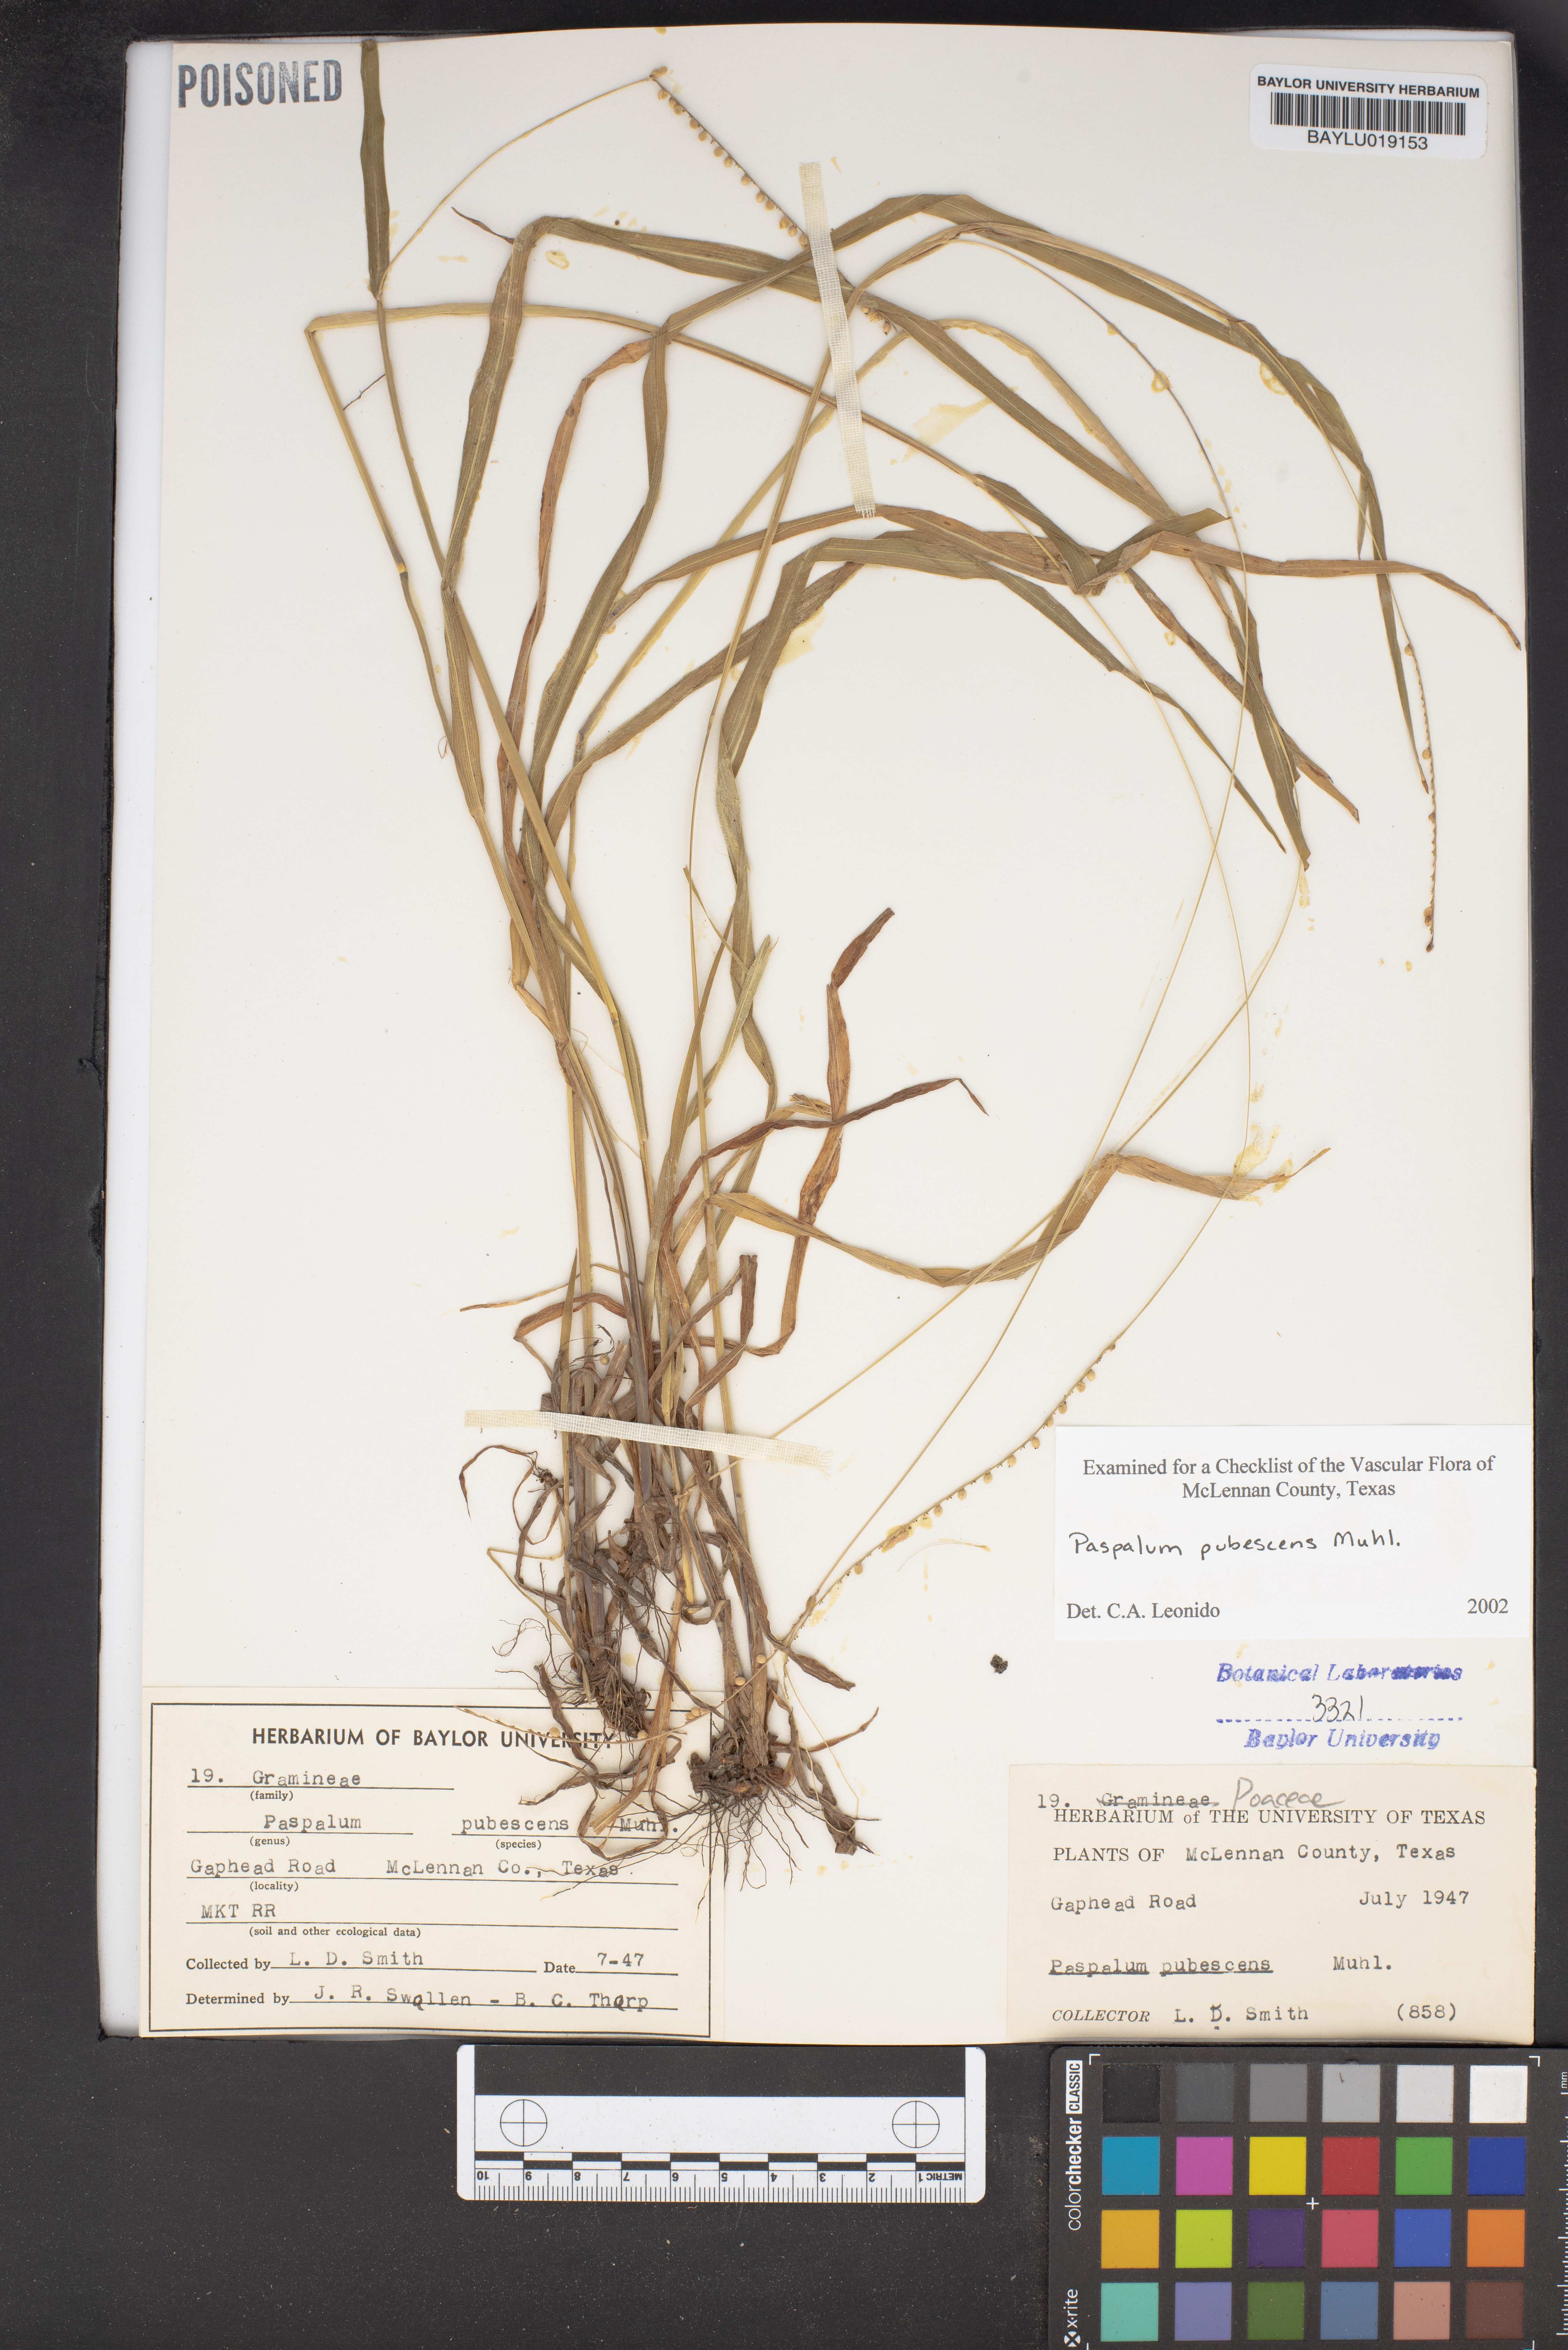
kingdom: Plantae
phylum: Tracheophyta
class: Liliopsida
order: Poales
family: Poaceae
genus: Paspalum
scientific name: Paspalum setaceum
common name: Slender paspalum
